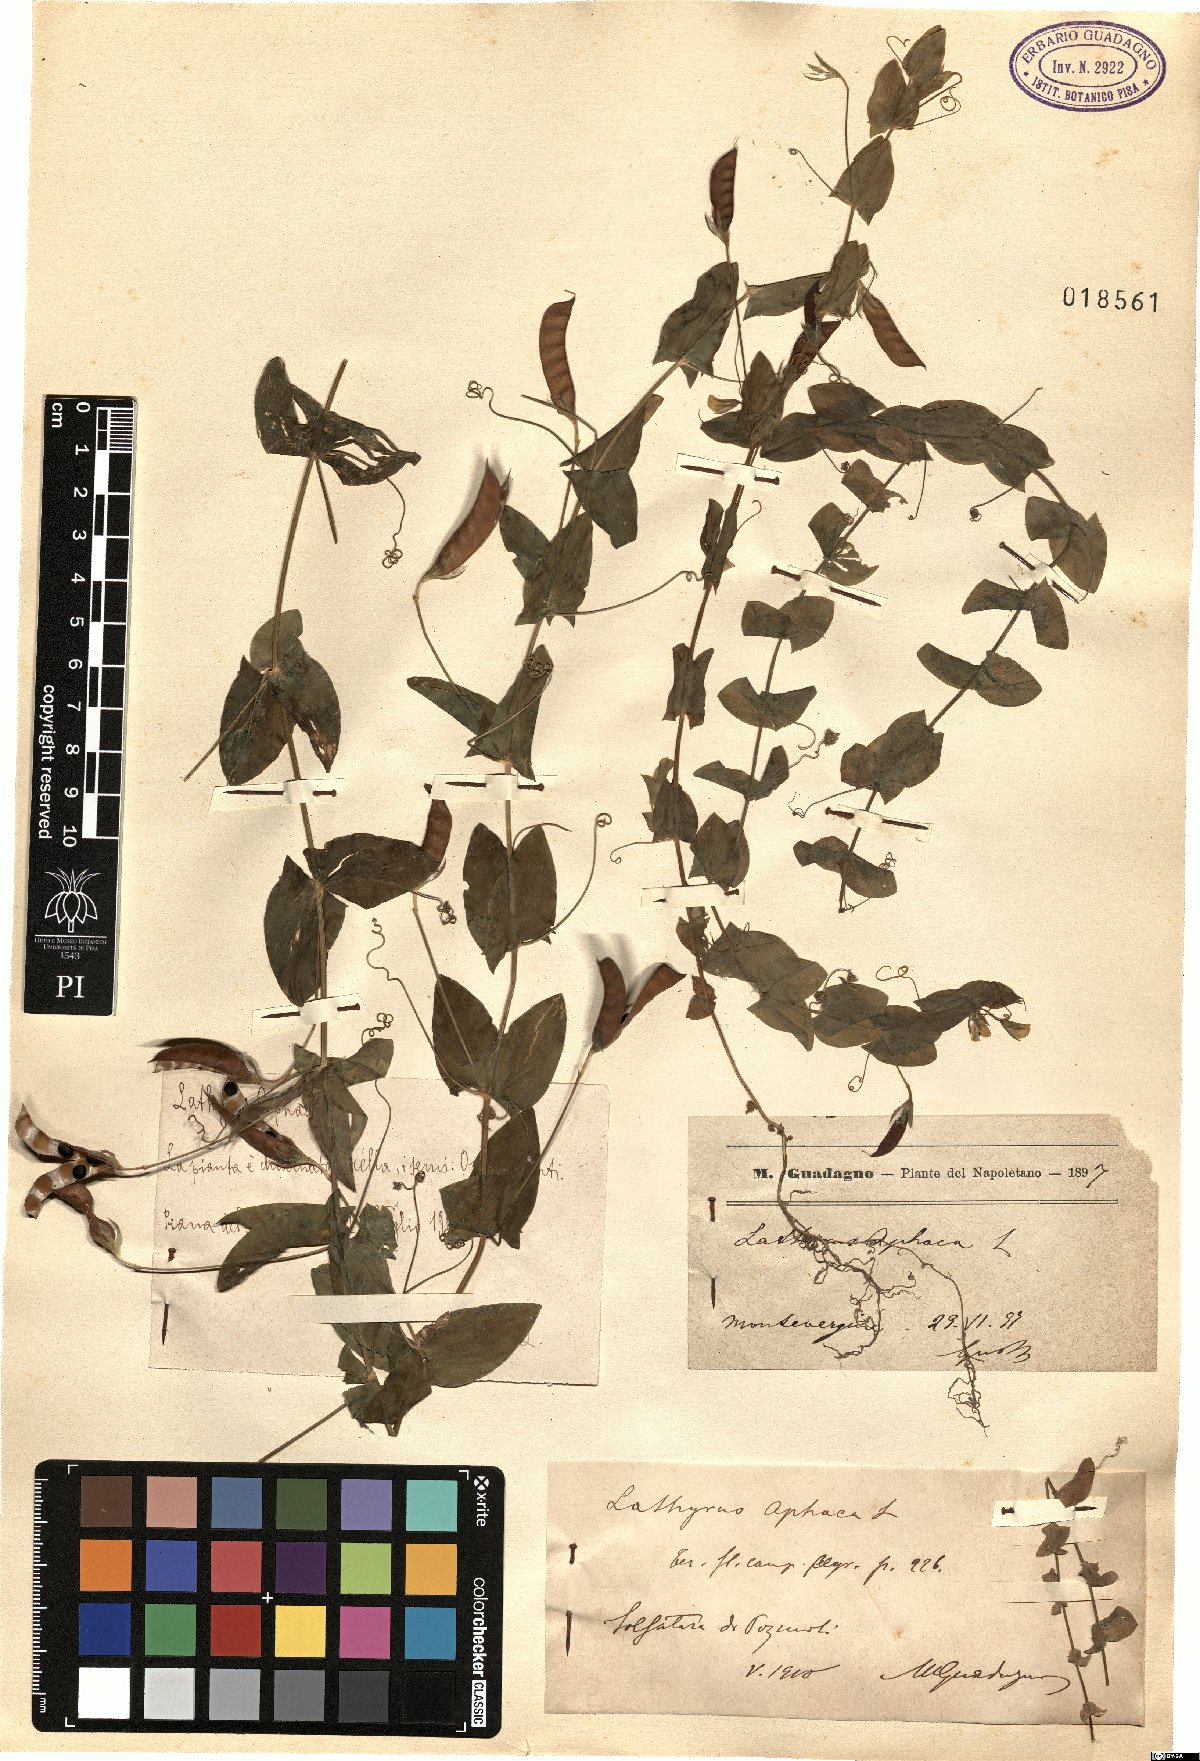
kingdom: Plantae
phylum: Tracheophyta
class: Magnoliopsida
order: Fabales
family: Fabaceae
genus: Lathyrus
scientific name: Lathyrus aphaca
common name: Yellow vetchling
